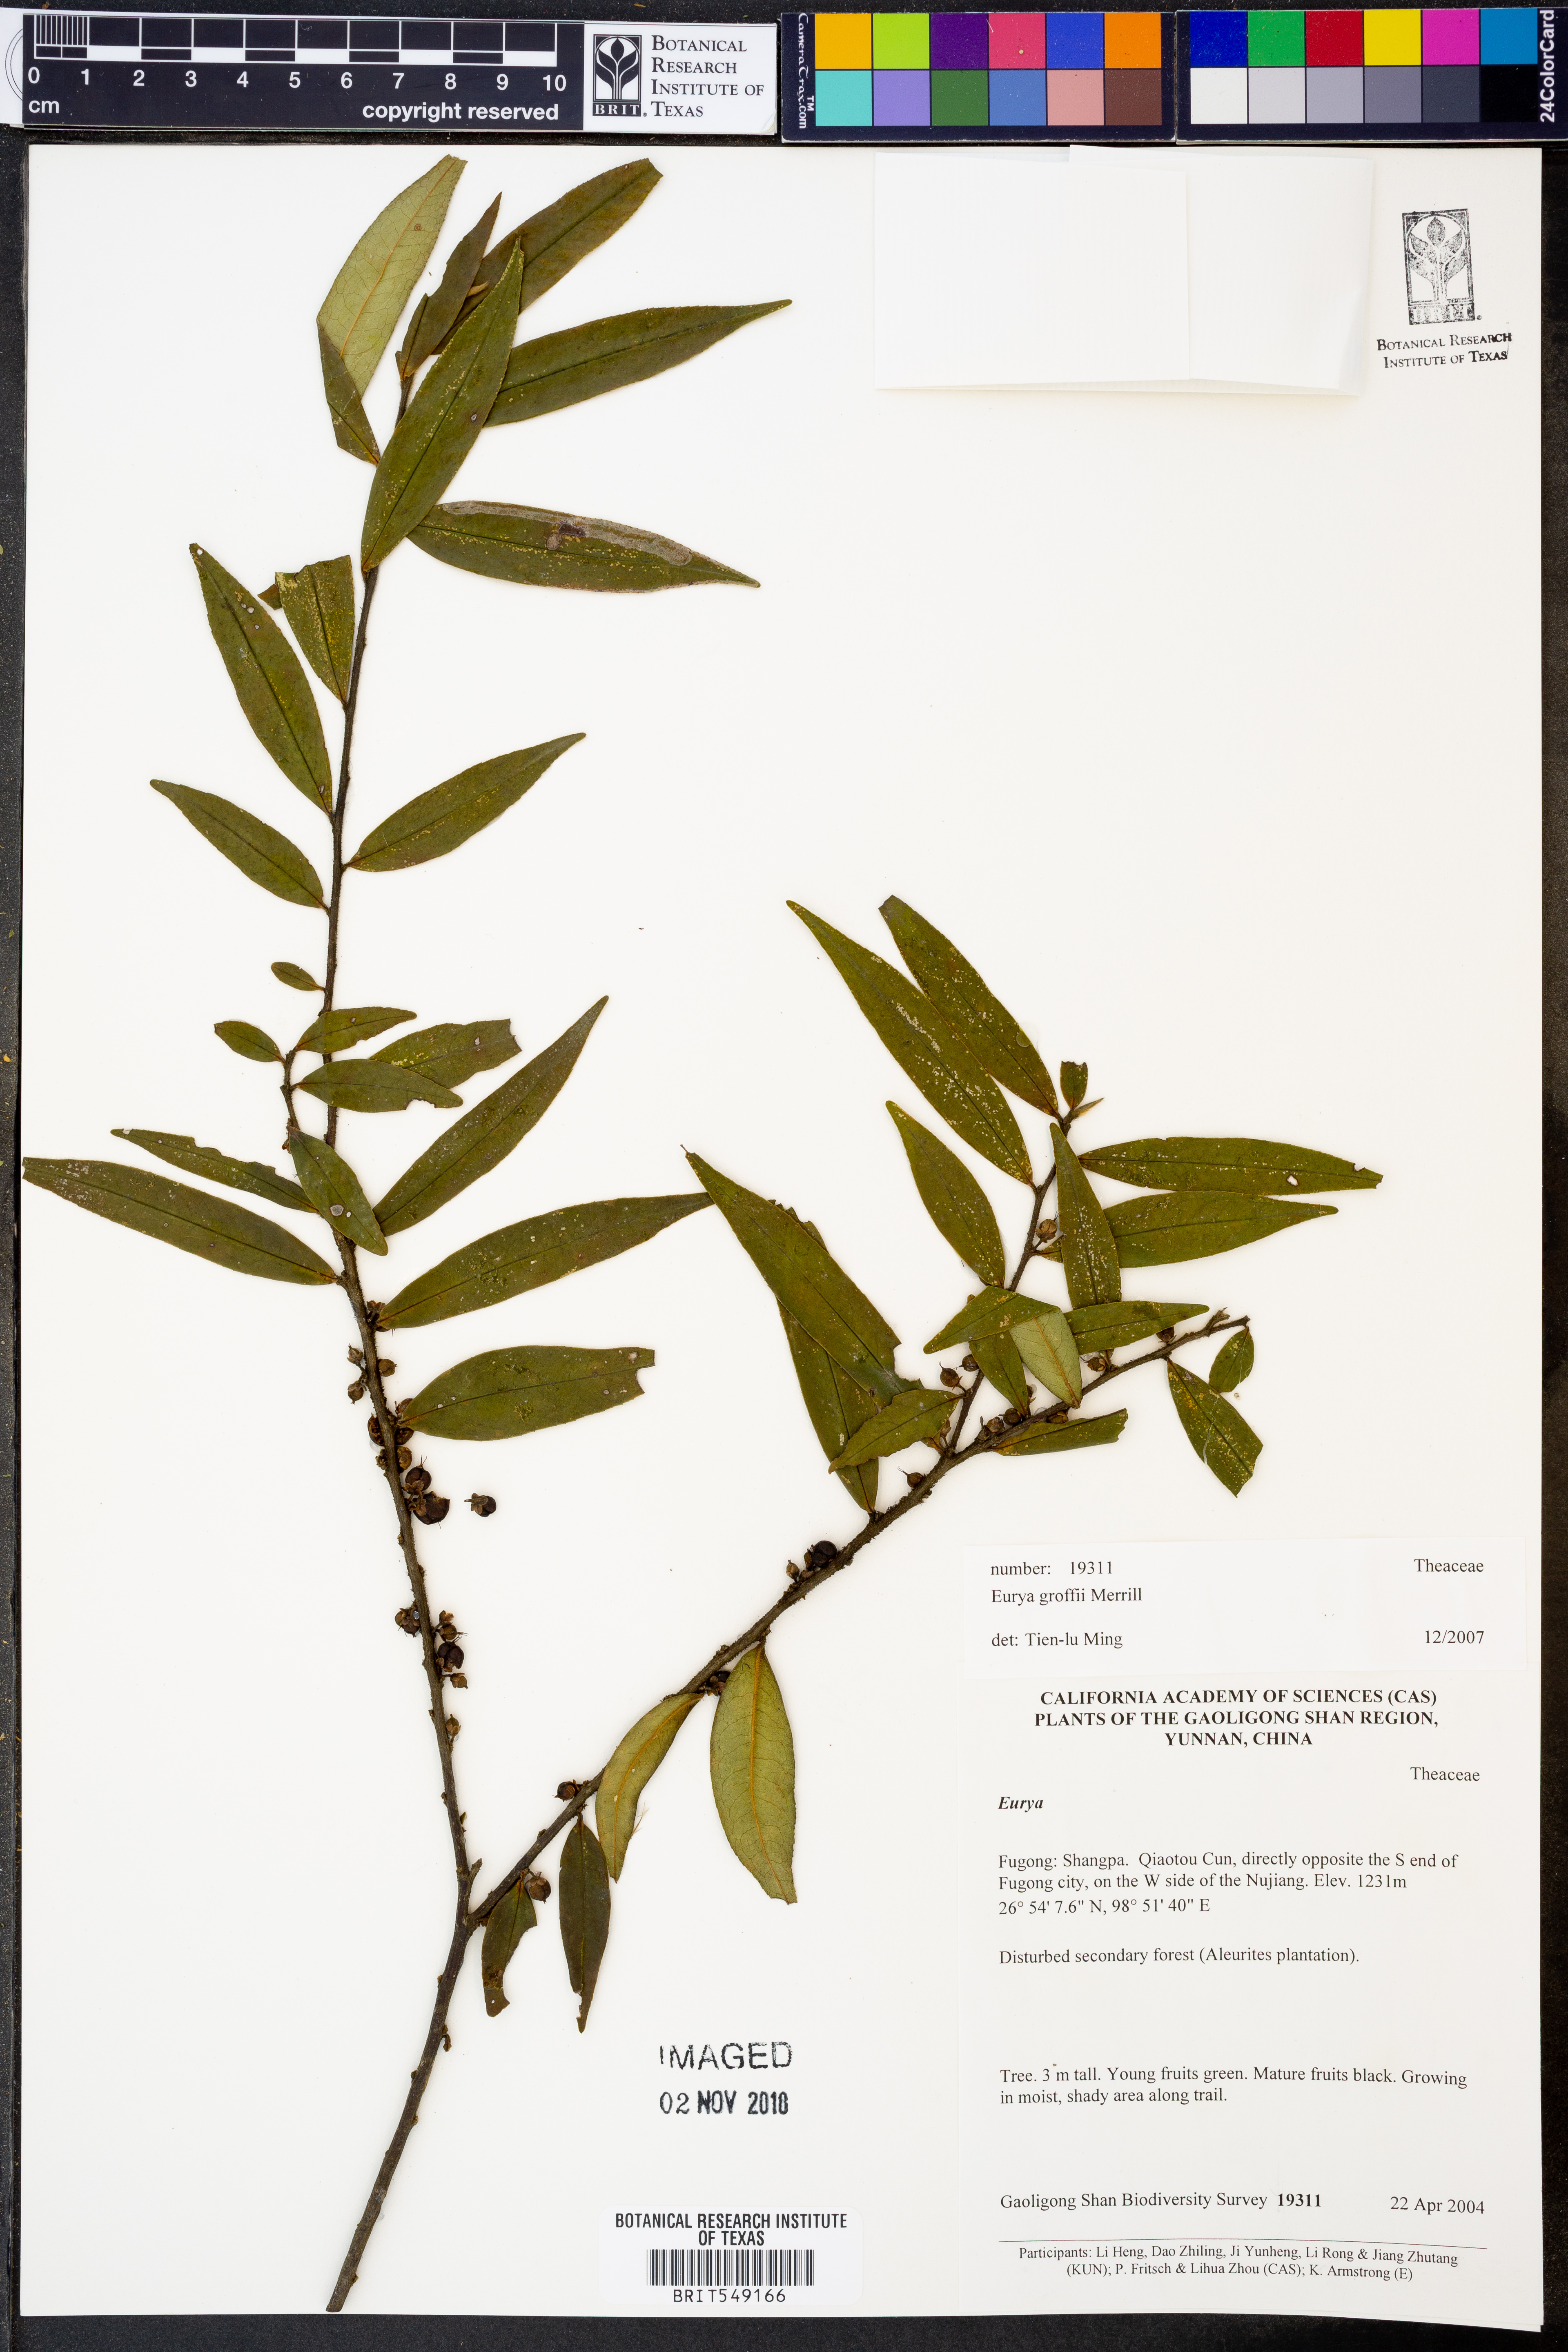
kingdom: Plantae
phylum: Tracheophyta
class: Magnoliopsida
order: Ericales
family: Pentaphylacaceae
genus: Eurya
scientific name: Eurya groffii
